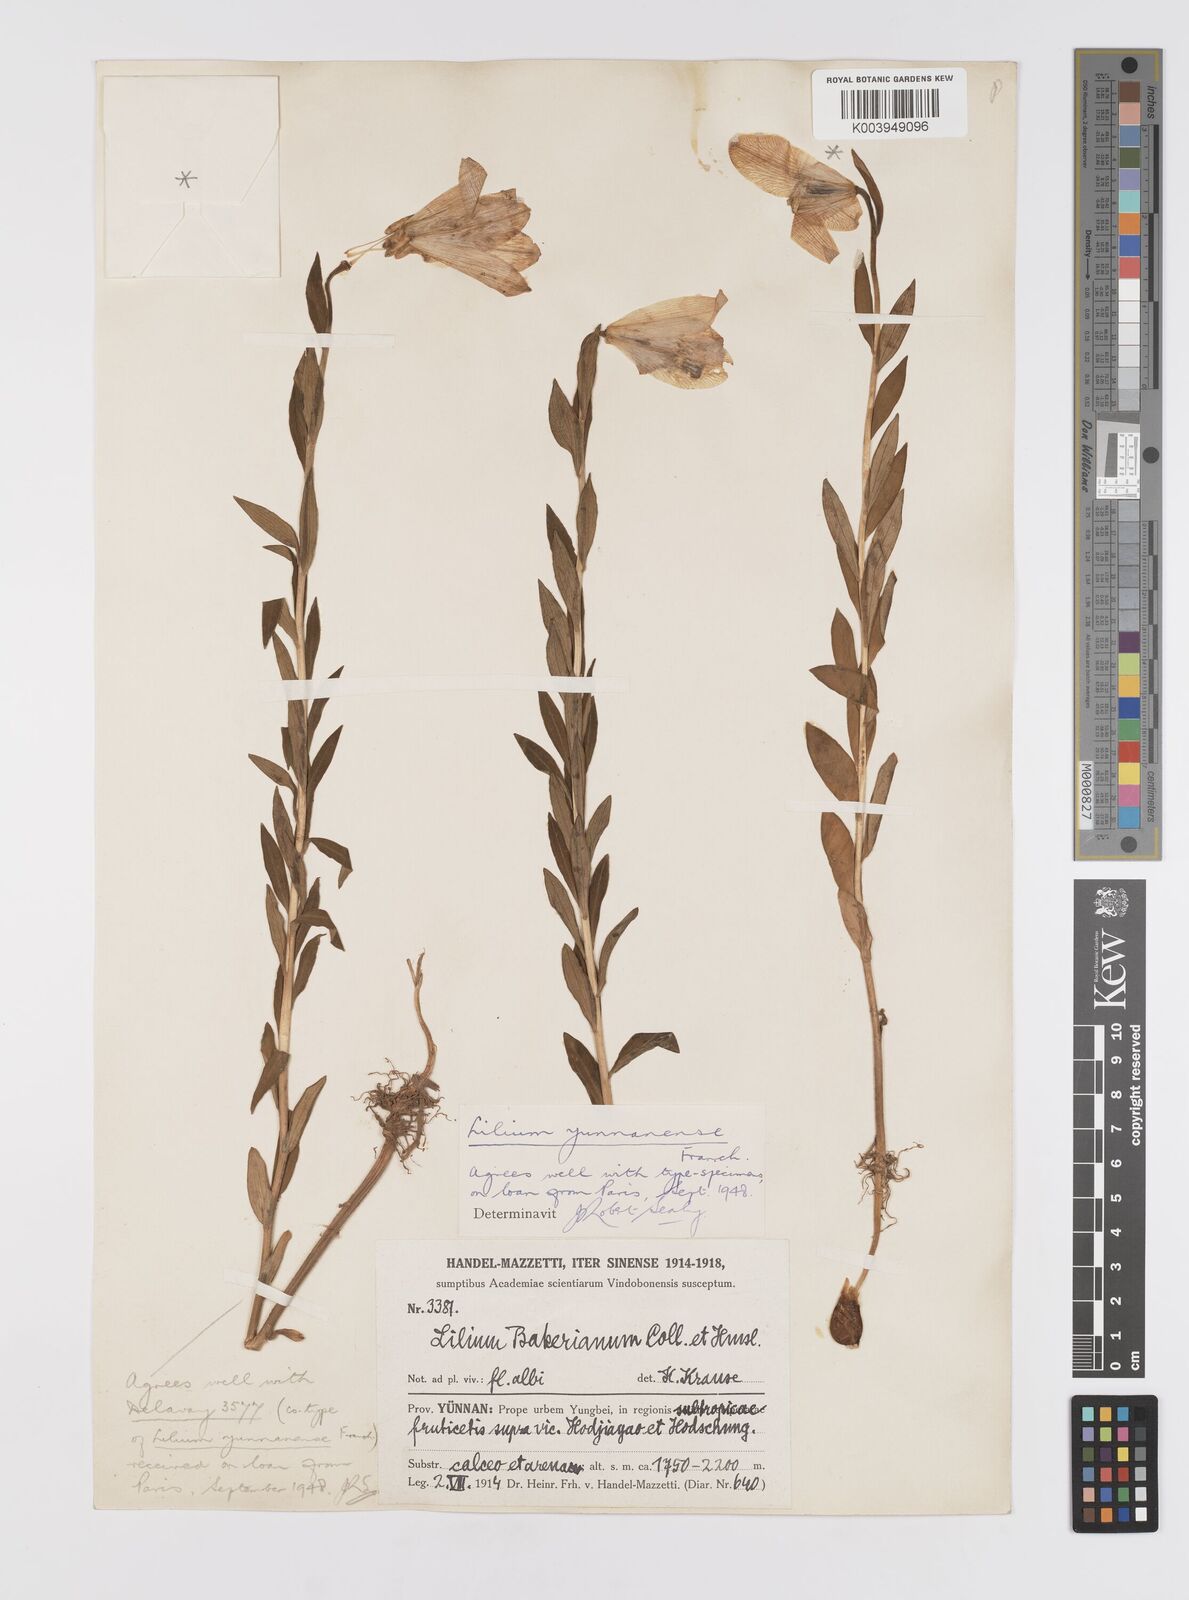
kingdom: Plantae
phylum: Tracheophyta
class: Liliopsida
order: Liliales
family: Liliaceae
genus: Lilium
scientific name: Lilium bakerianum
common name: Baker's lily
